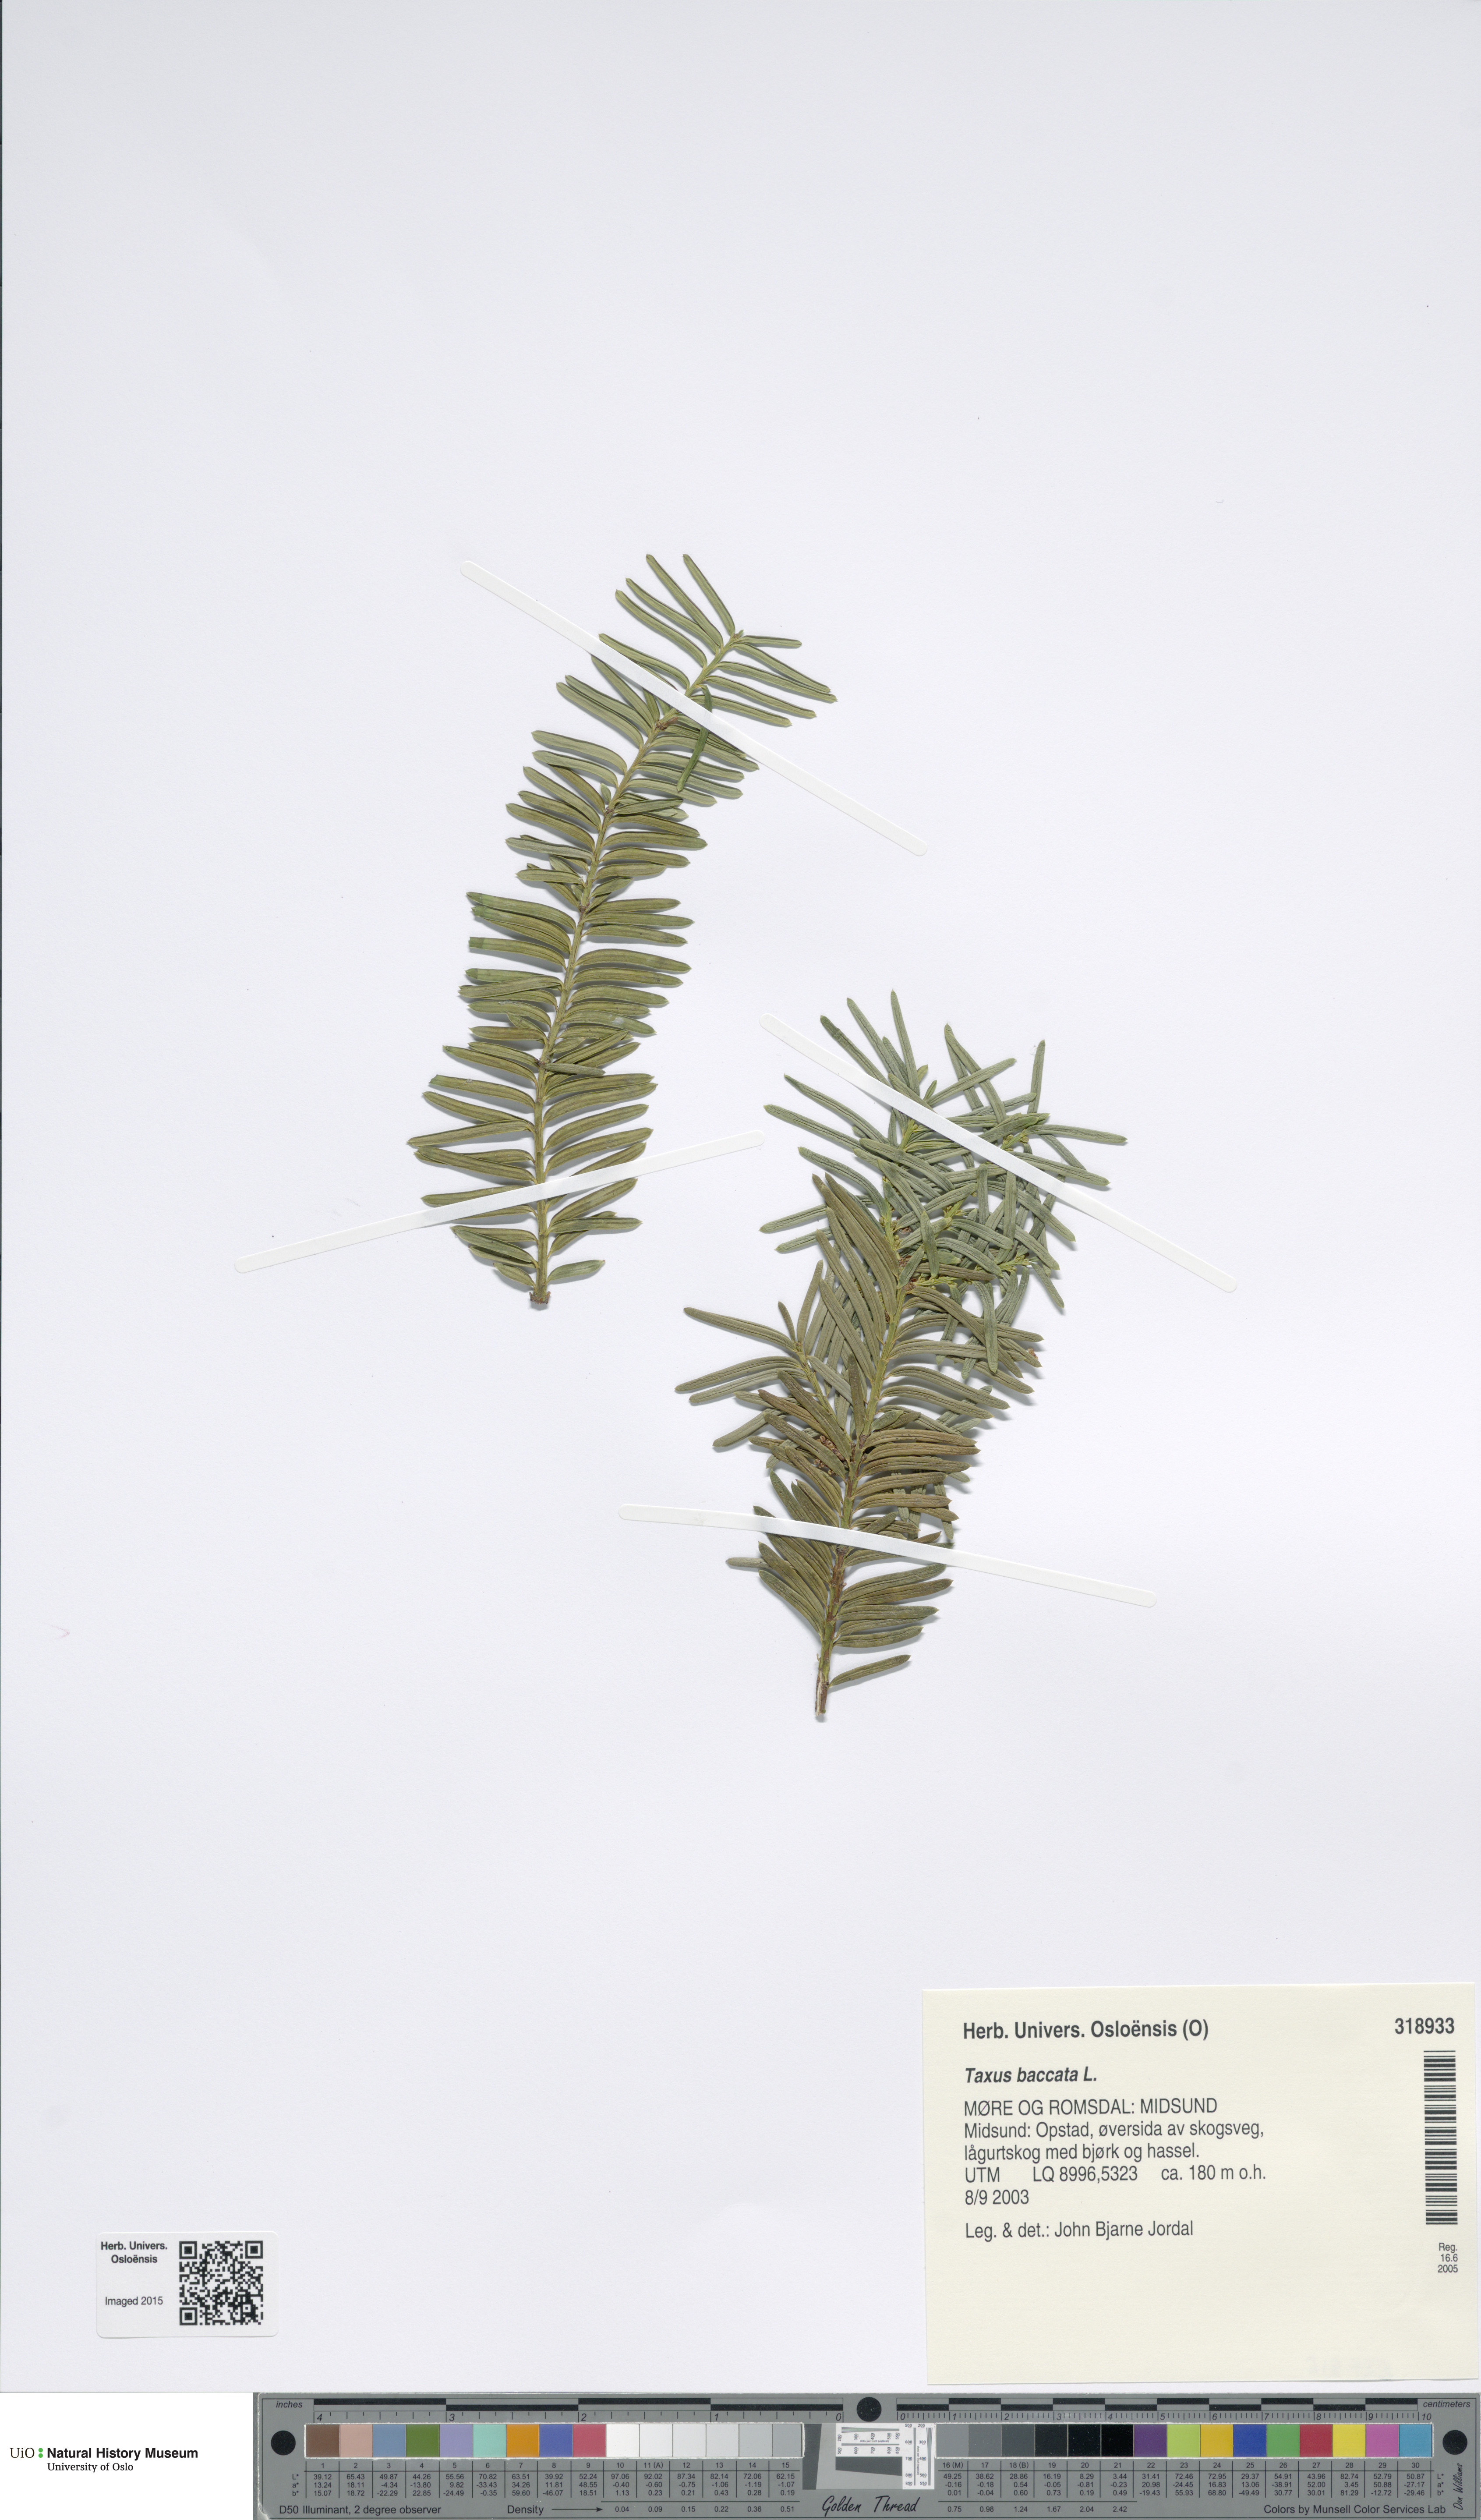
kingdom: Plantae
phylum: Tracheophyta
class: Pinopsida
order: Pinales
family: Taxaceae
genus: Taxus
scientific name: Taxus baccata
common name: Yew
